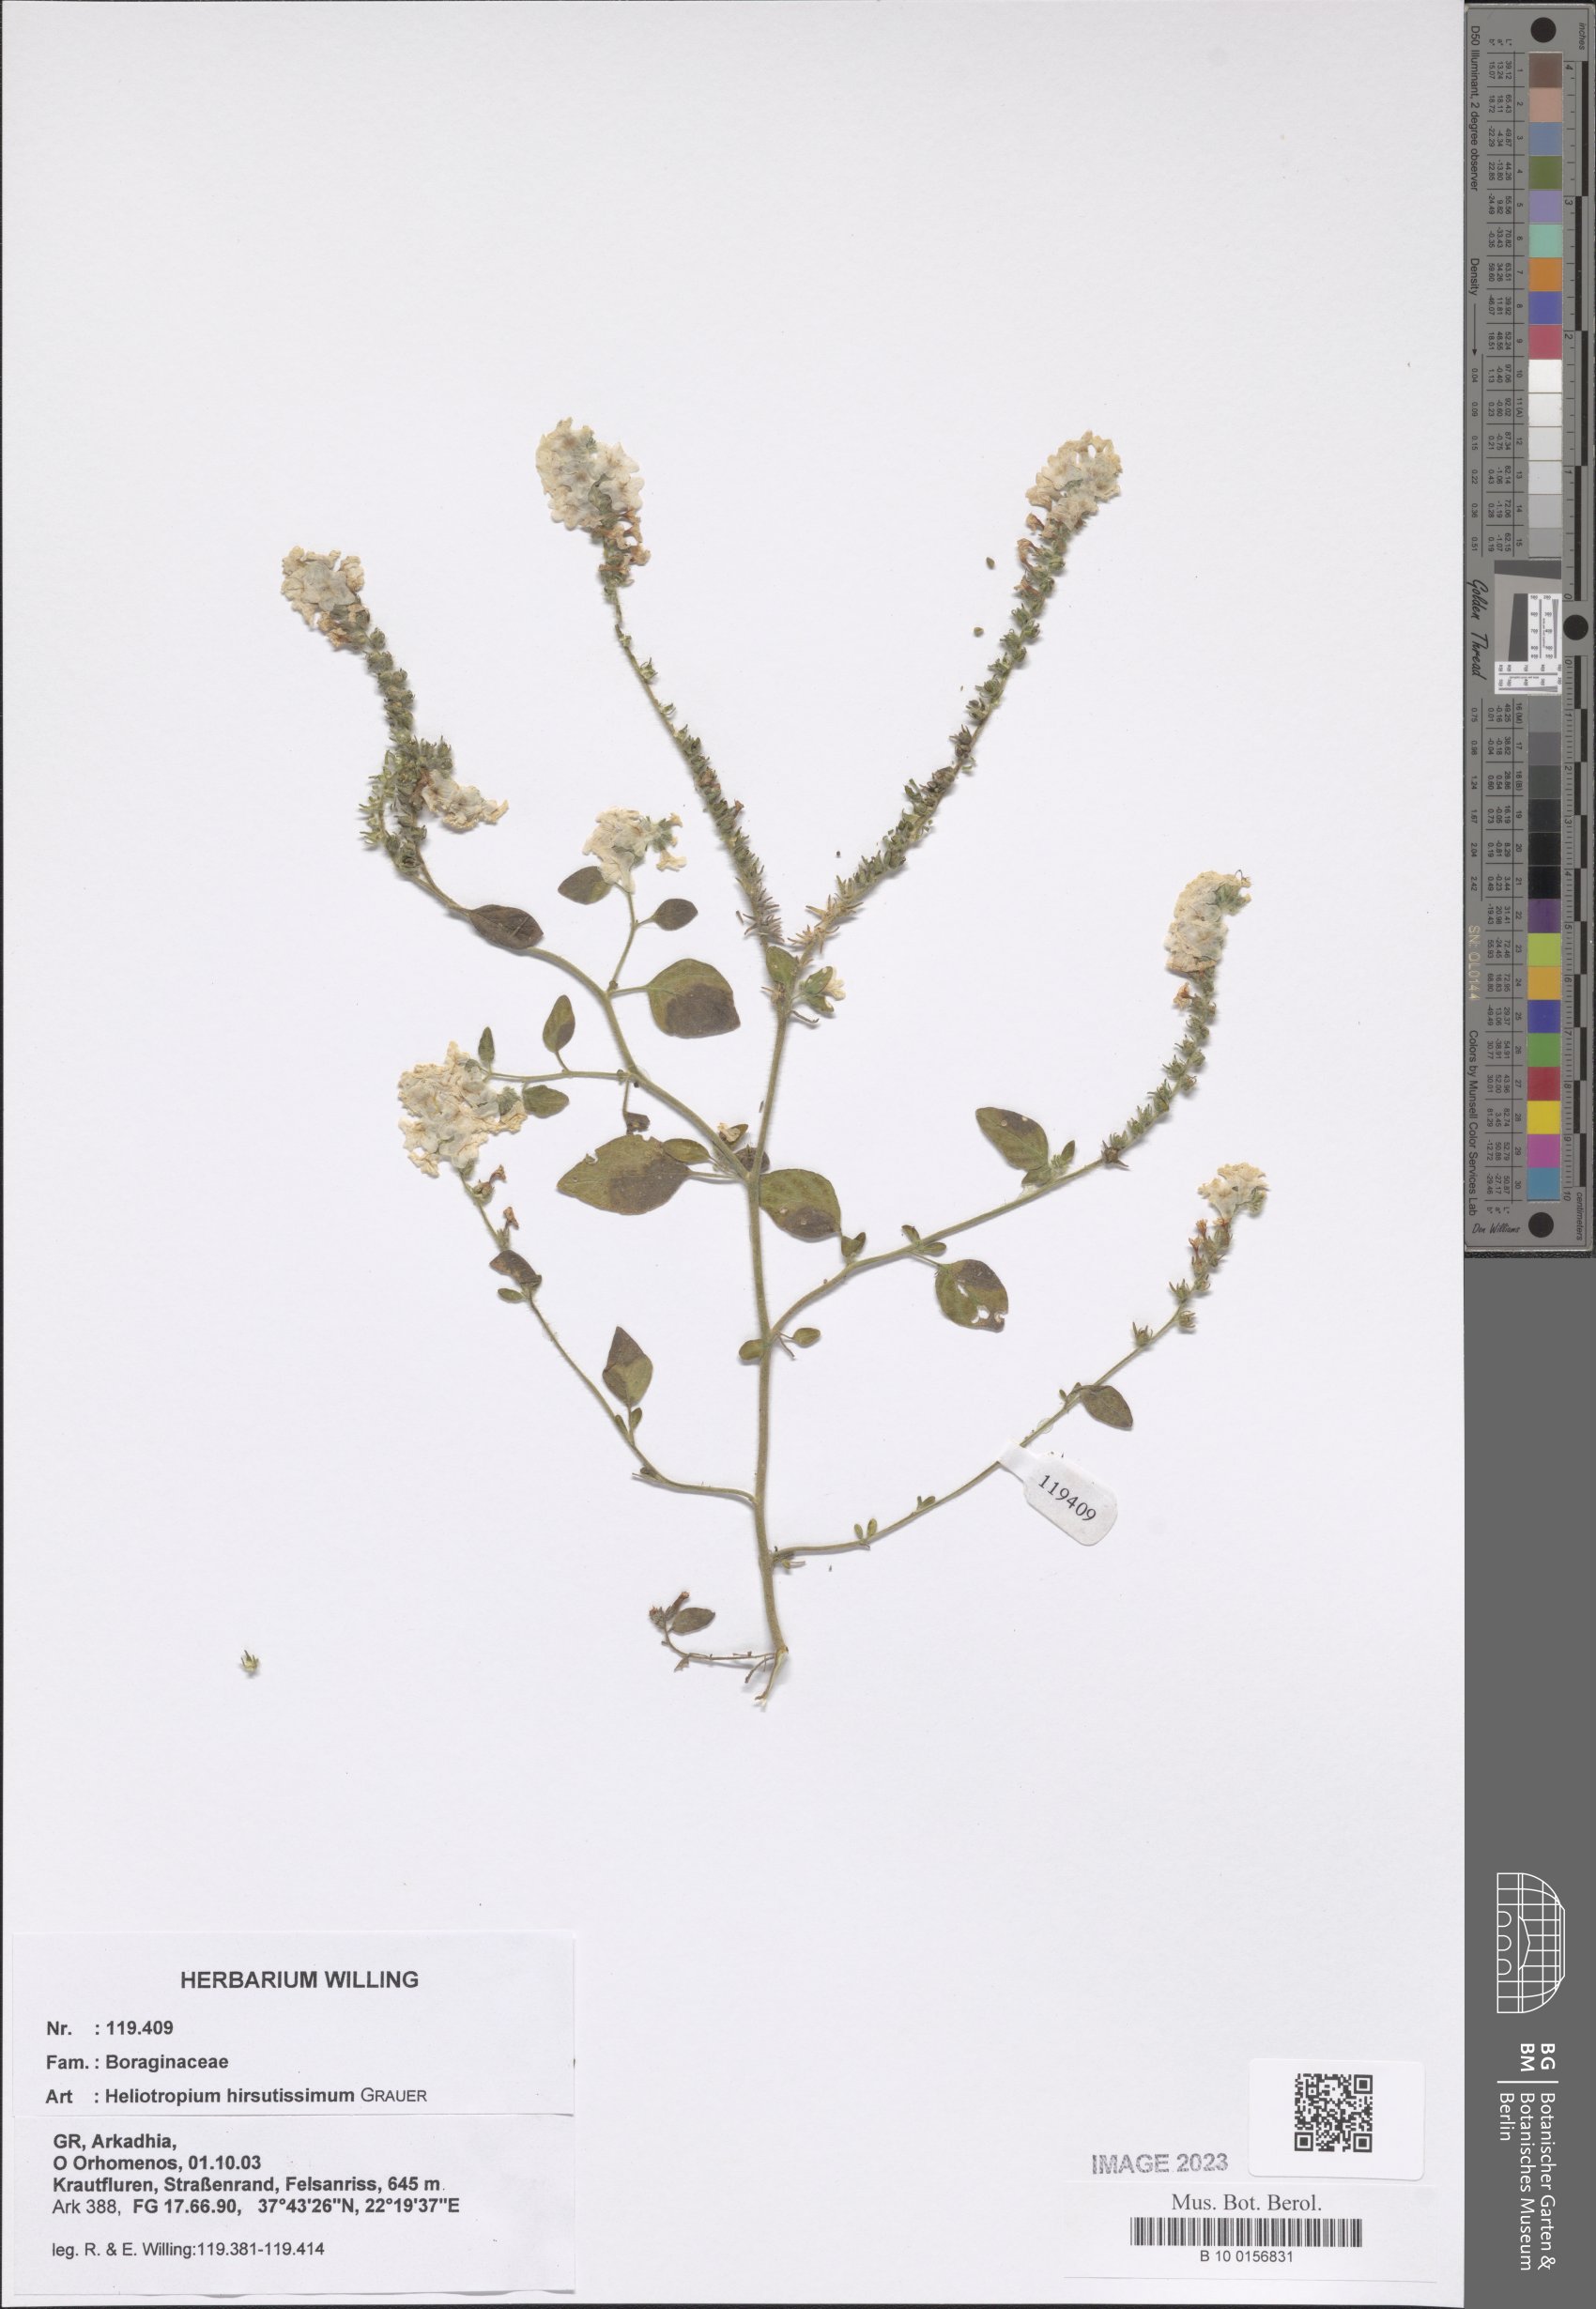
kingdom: Plantae
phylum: Tracheophyta
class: Magnoliopsida
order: Boraginales
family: Heliotropiaceae
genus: Heliotropium
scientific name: Heliotropium hirsutissimum
